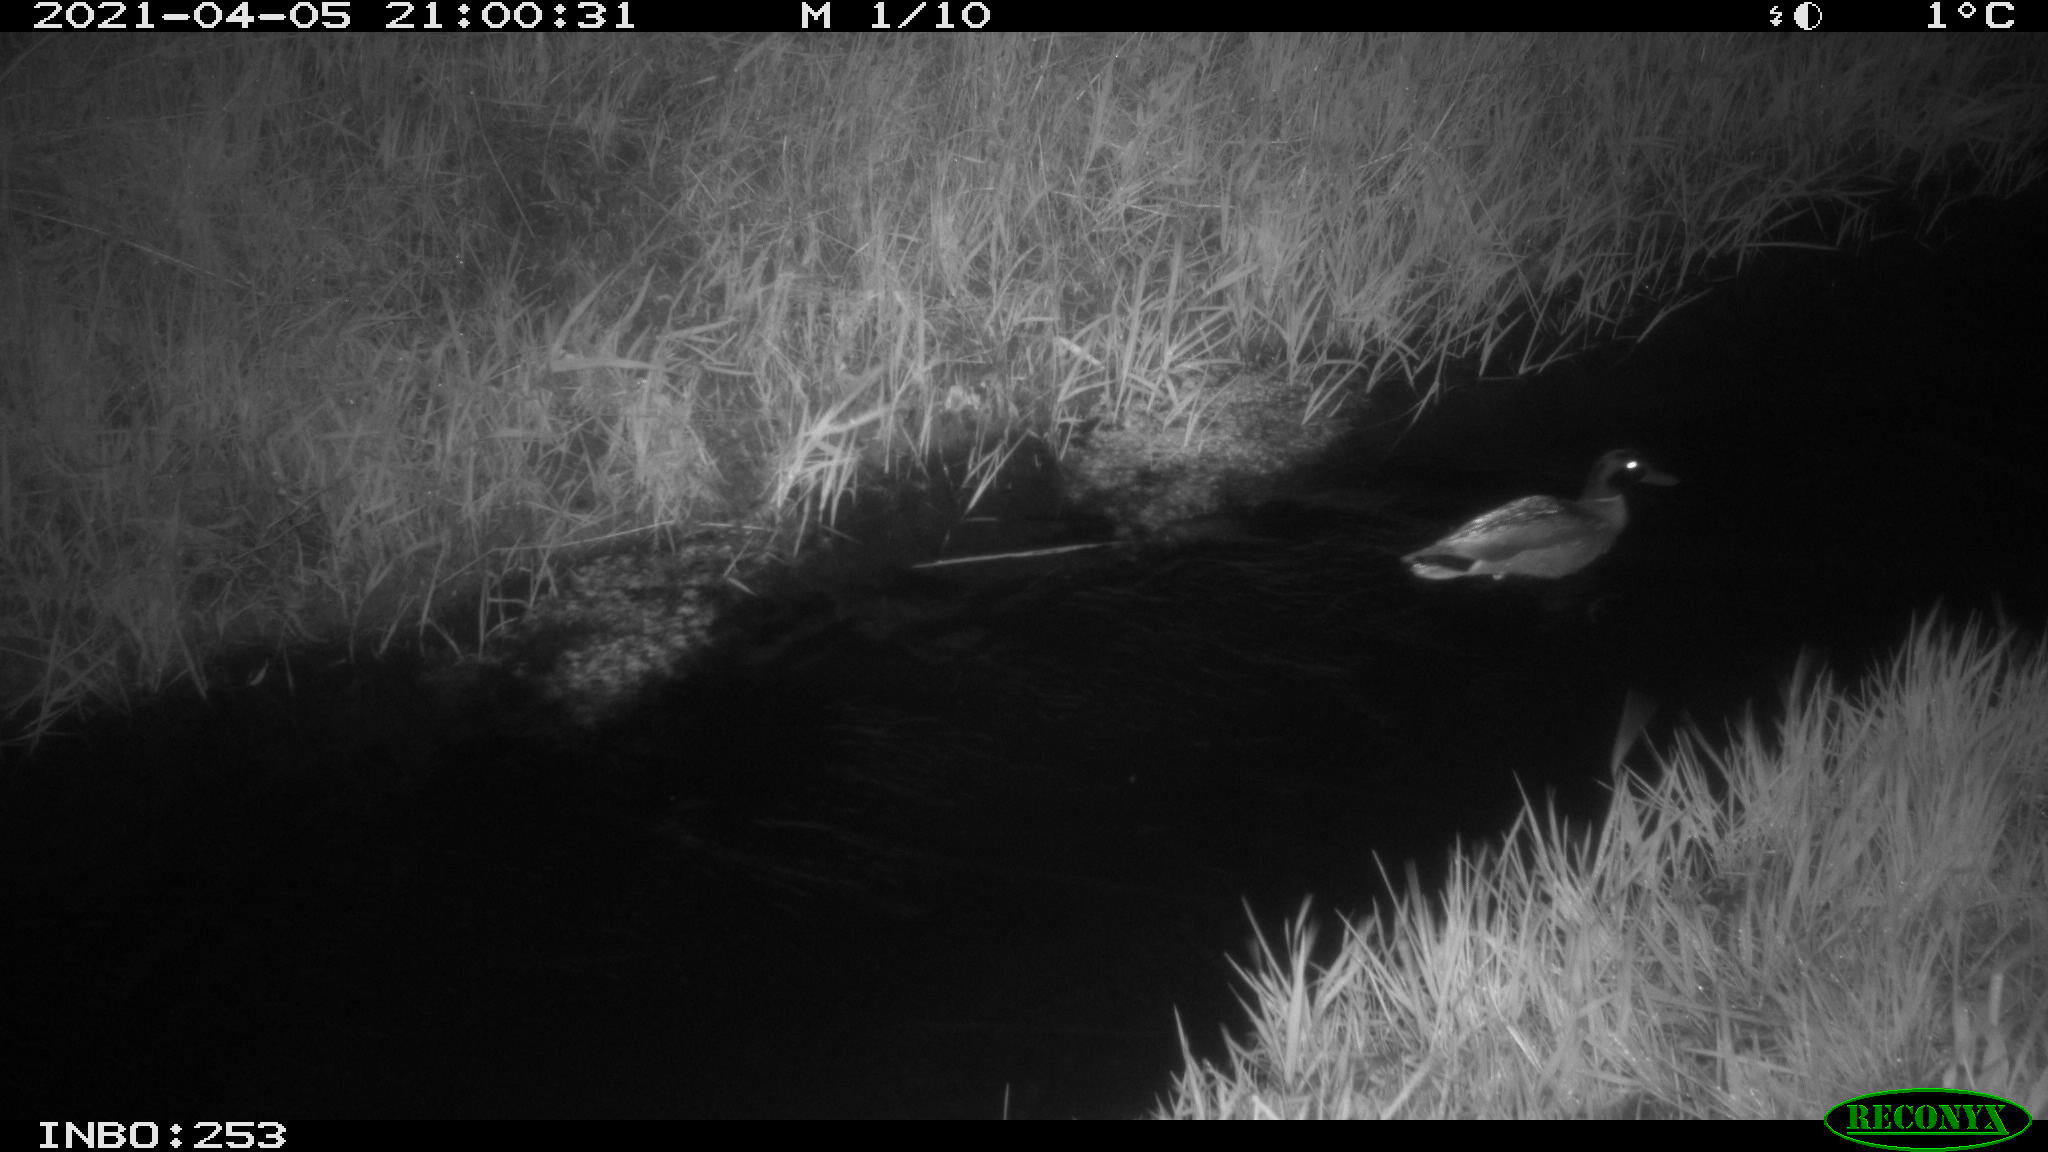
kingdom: Animalia
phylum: Chordata
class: Aves
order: Anseriformes
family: Anatidae
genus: Anas
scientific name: Anas platyrhynchos
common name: Mallard
